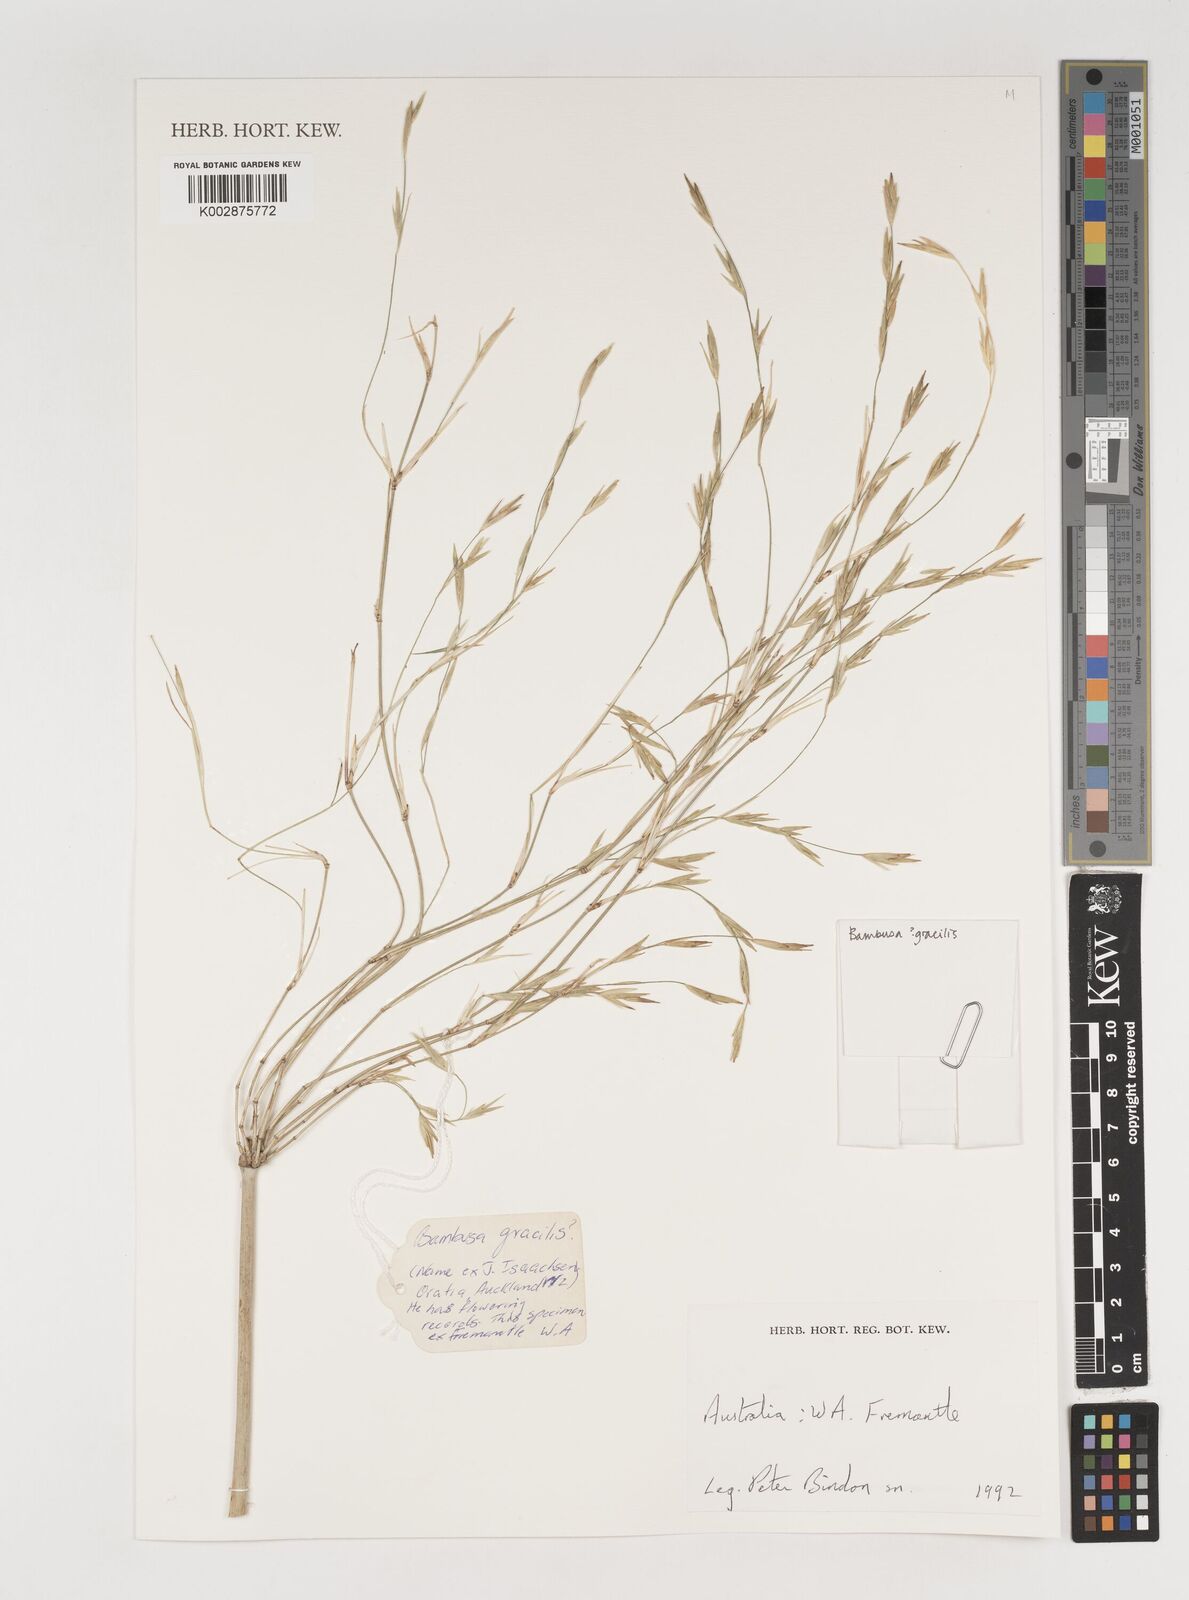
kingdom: Plantae
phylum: Tracheophyta
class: Liliopsida
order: Poales
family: Poaceae
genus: Neololeba
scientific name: Neololeba atra
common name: Cape bamboo
